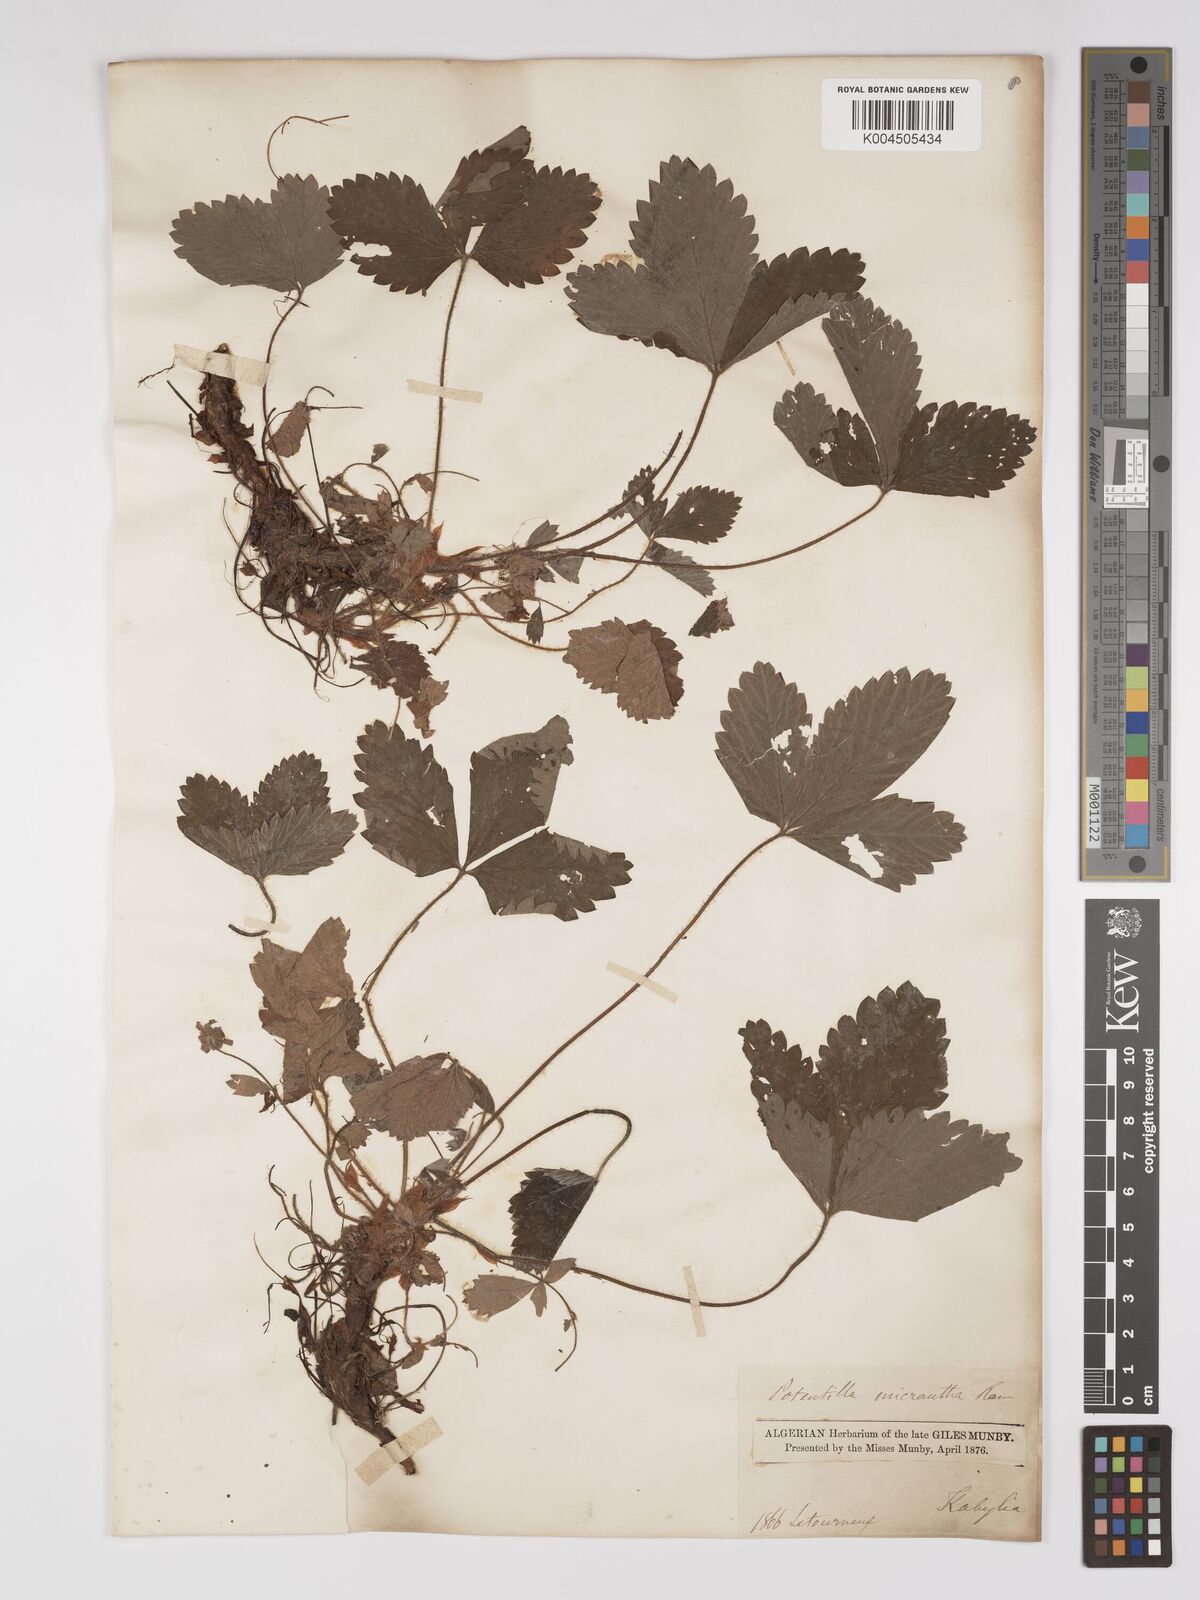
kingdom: Plantae
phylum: Tracheophyta
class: Magnoliopsida
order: Rosales
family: Rosaceae
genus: Potentilla
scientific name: Potentilla micrantha
